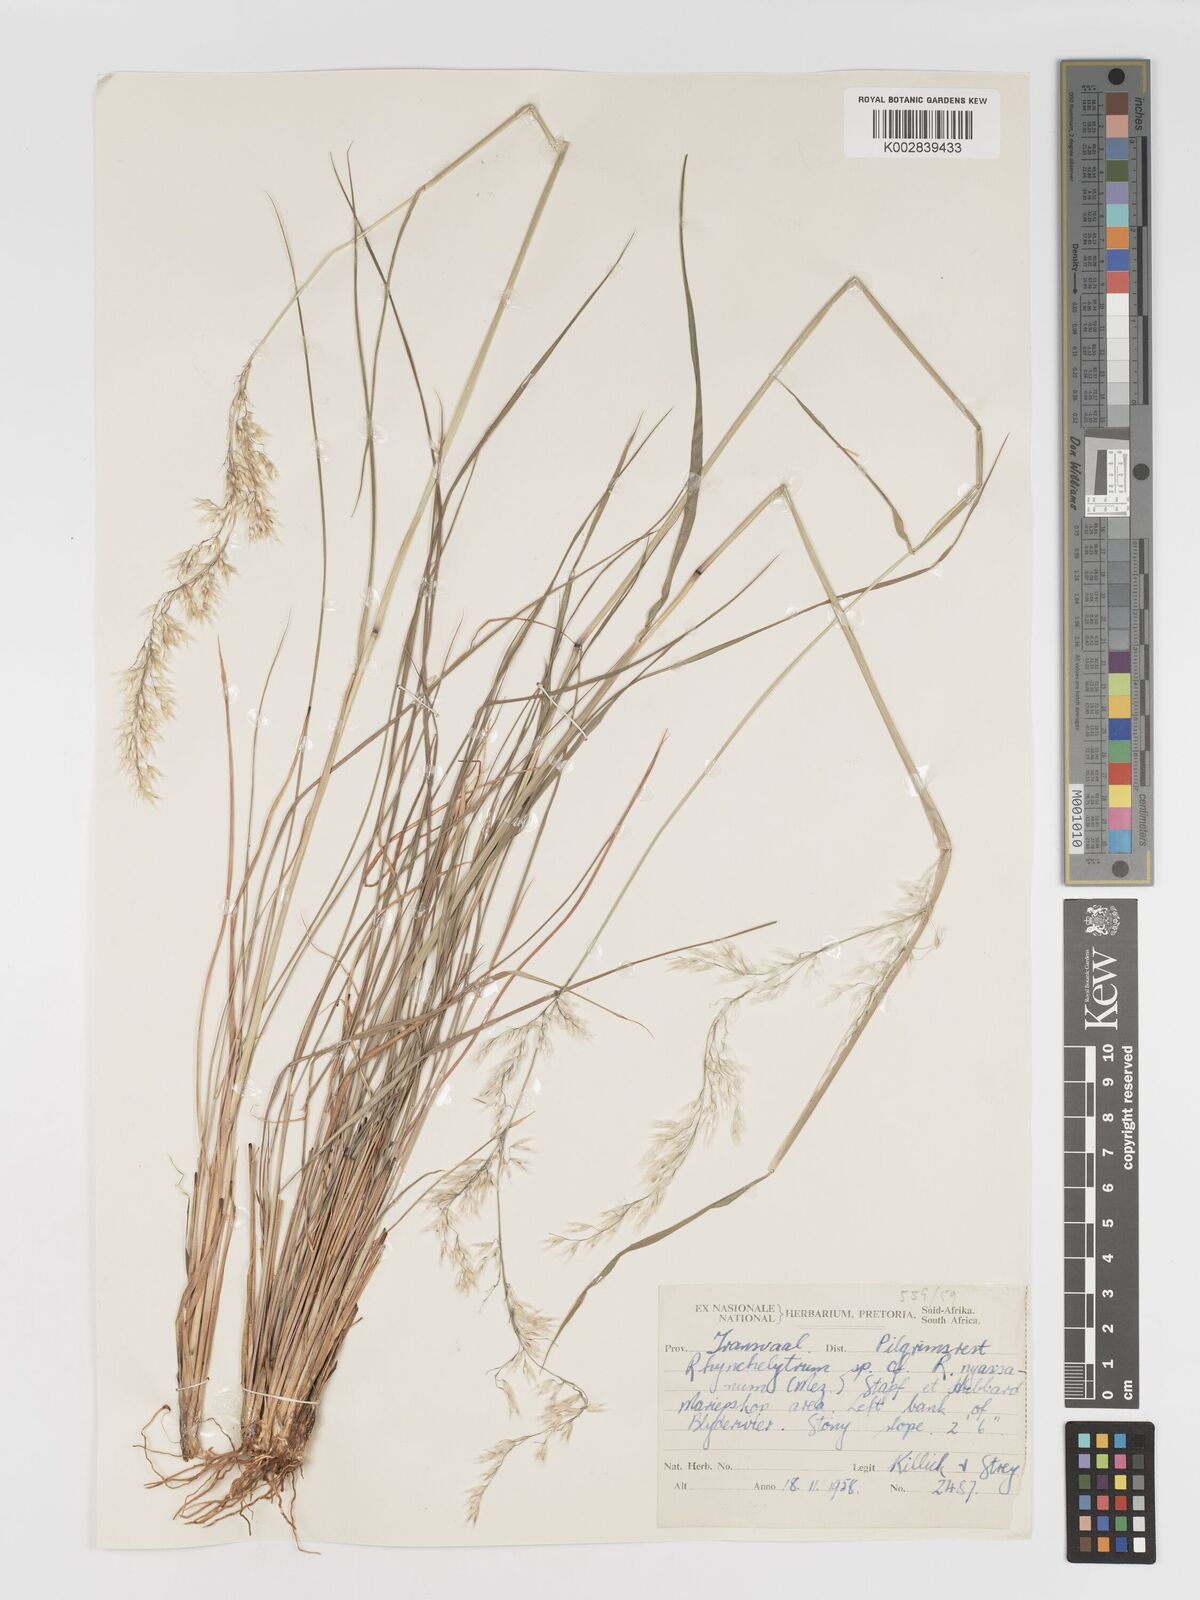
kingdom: Plantae
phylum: Tracheophyta
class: Liliopsida
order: Poales
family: Poaceae
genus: Melinis
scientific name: Melinis nerviglumis
